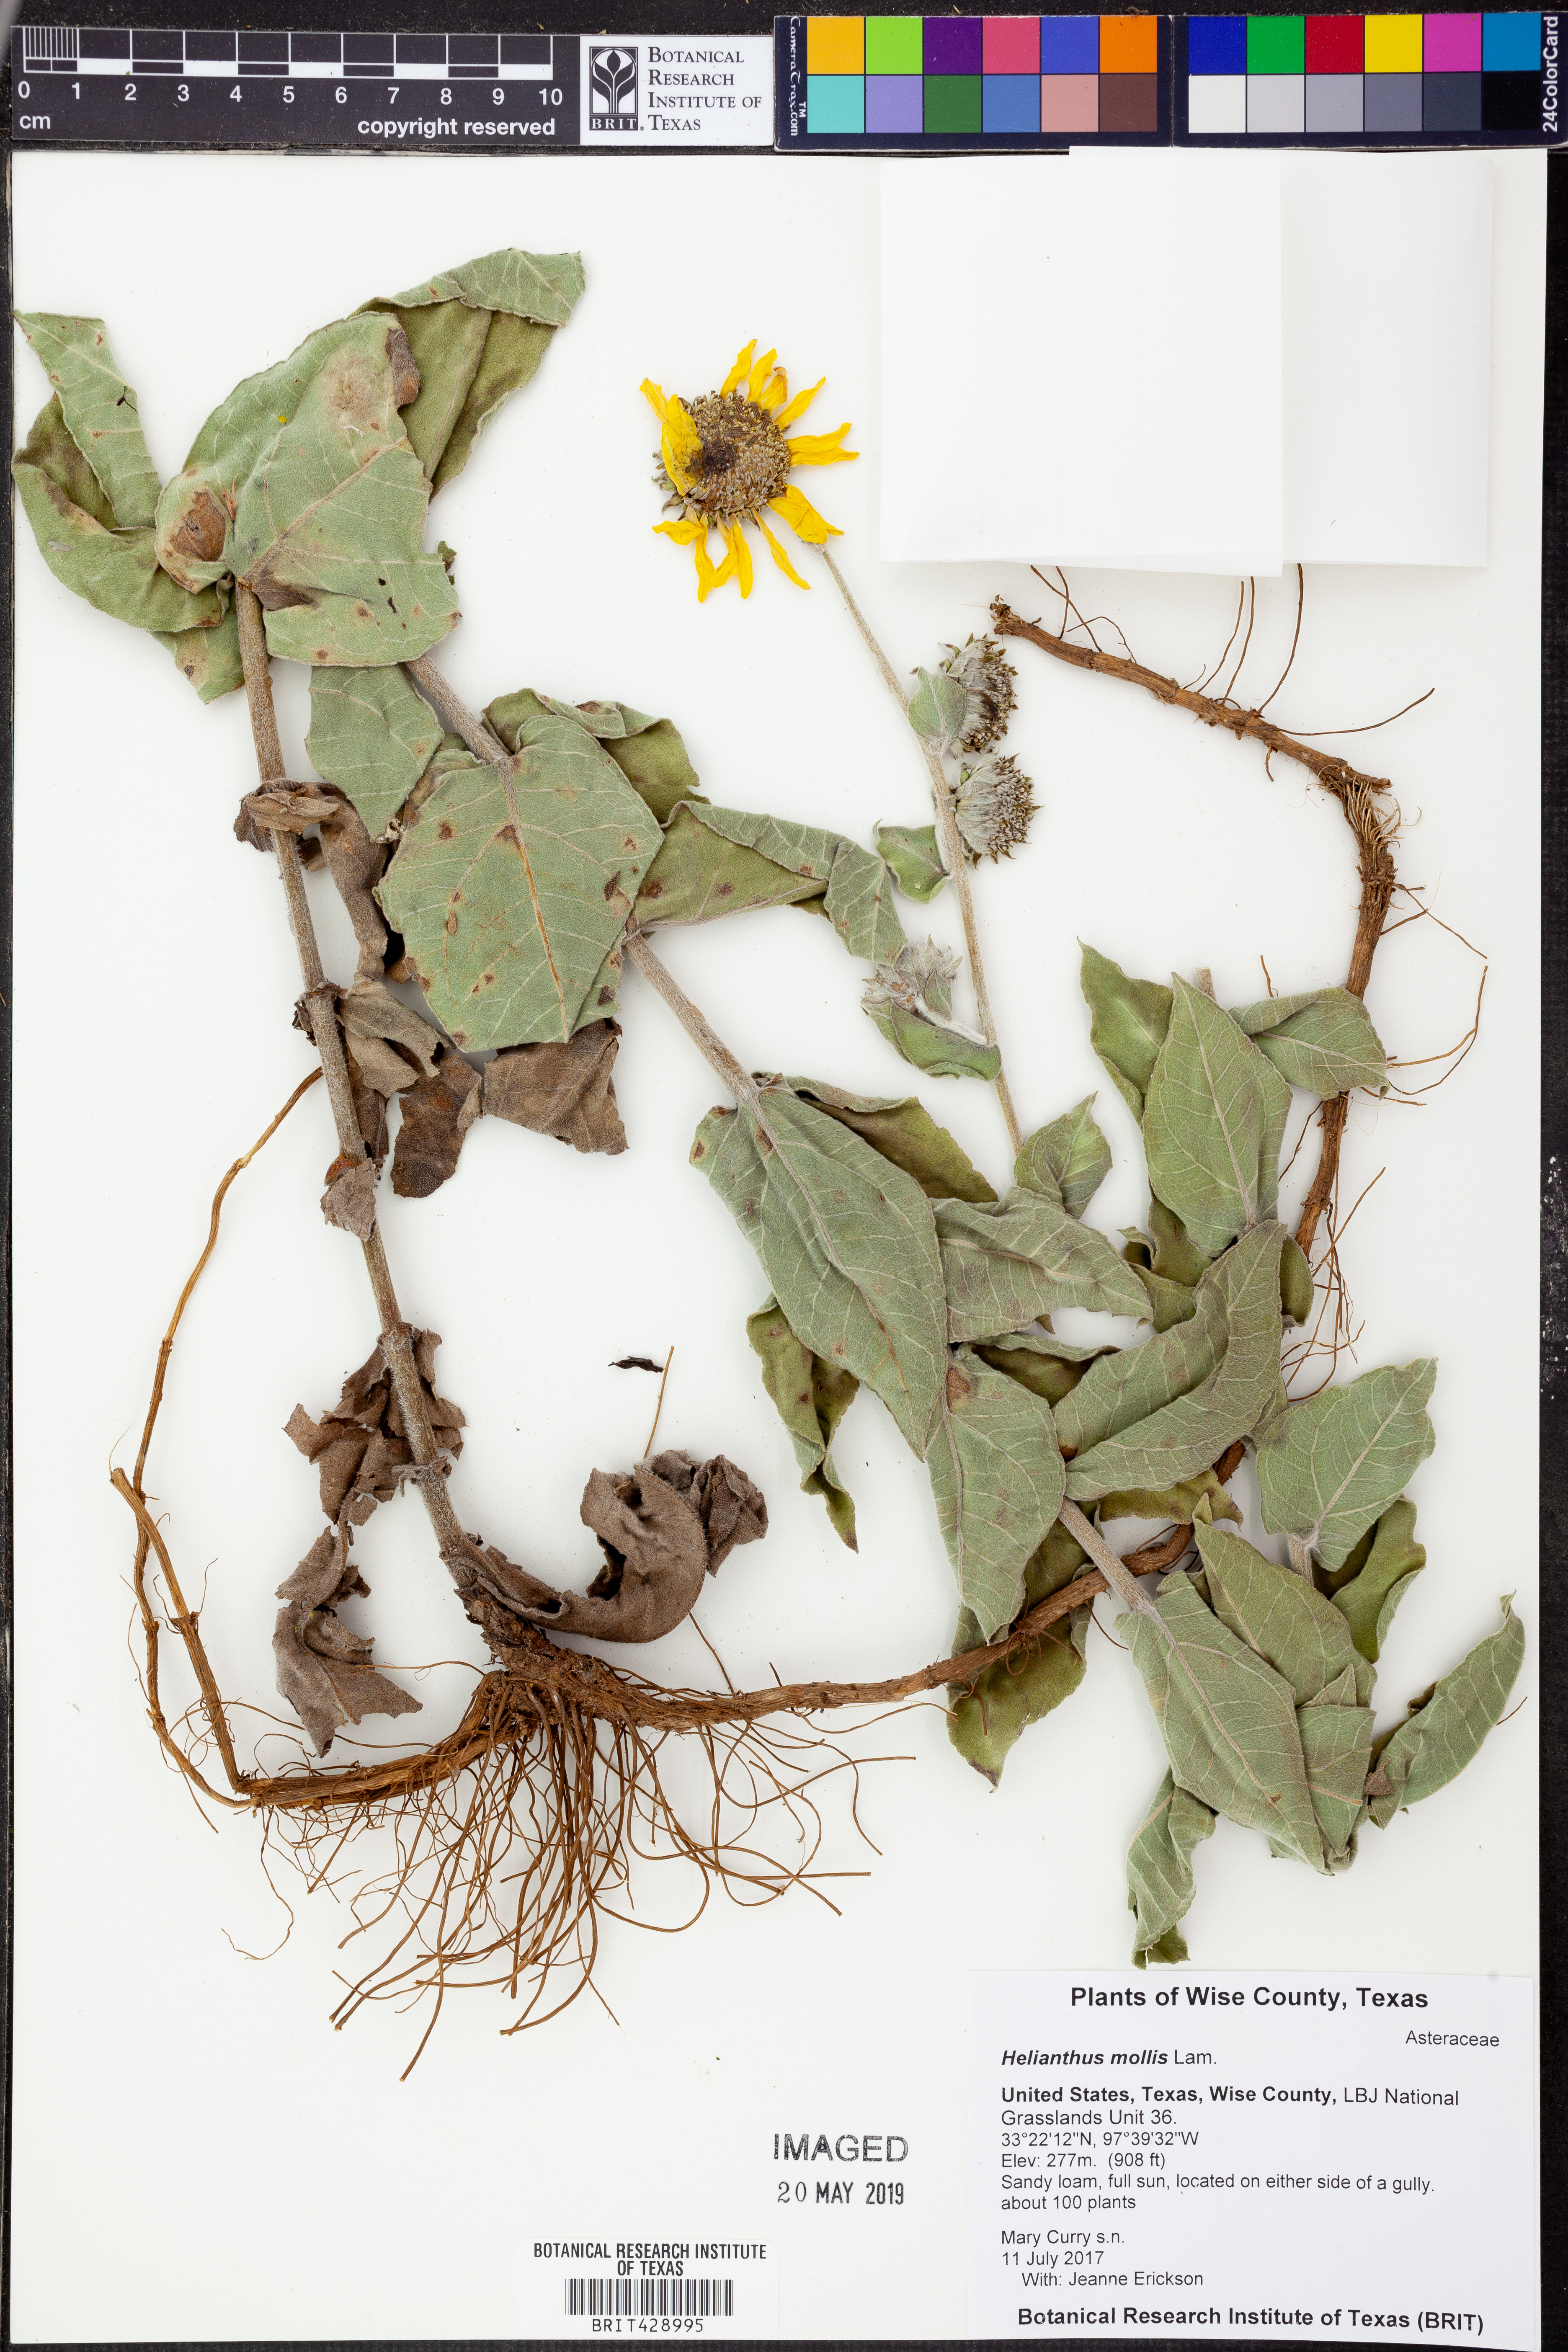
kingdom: Plantae
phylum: Tracheophyta
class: Magnoliopsida
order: Asterales
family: Asteraceae
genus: Helianthus
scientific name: Helianthus mollis
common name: Ashy sunflower
